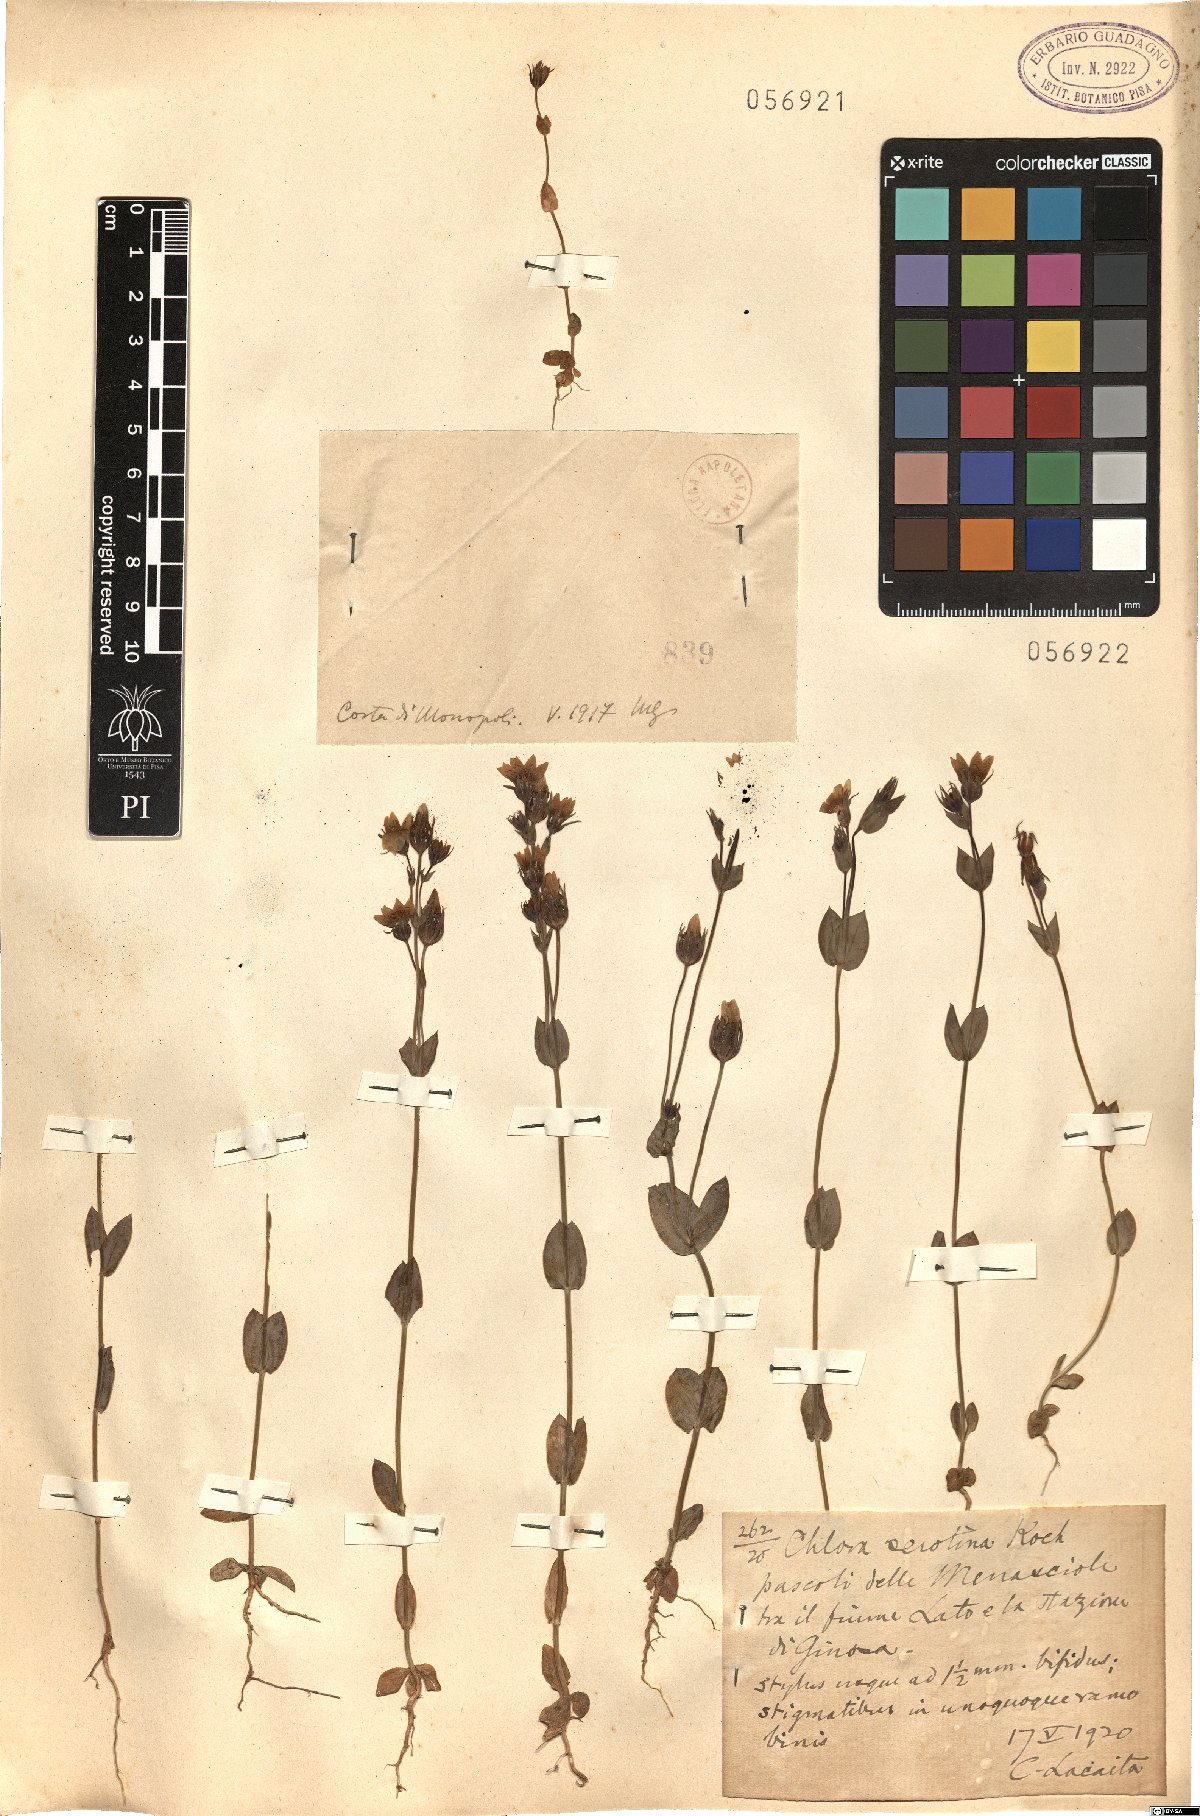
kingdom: Plantae
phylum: Tracheophyta
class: Magnoliopsida
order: Gentianales
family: Gentianaceae
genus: Blackstonia
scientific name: Blackstonia
